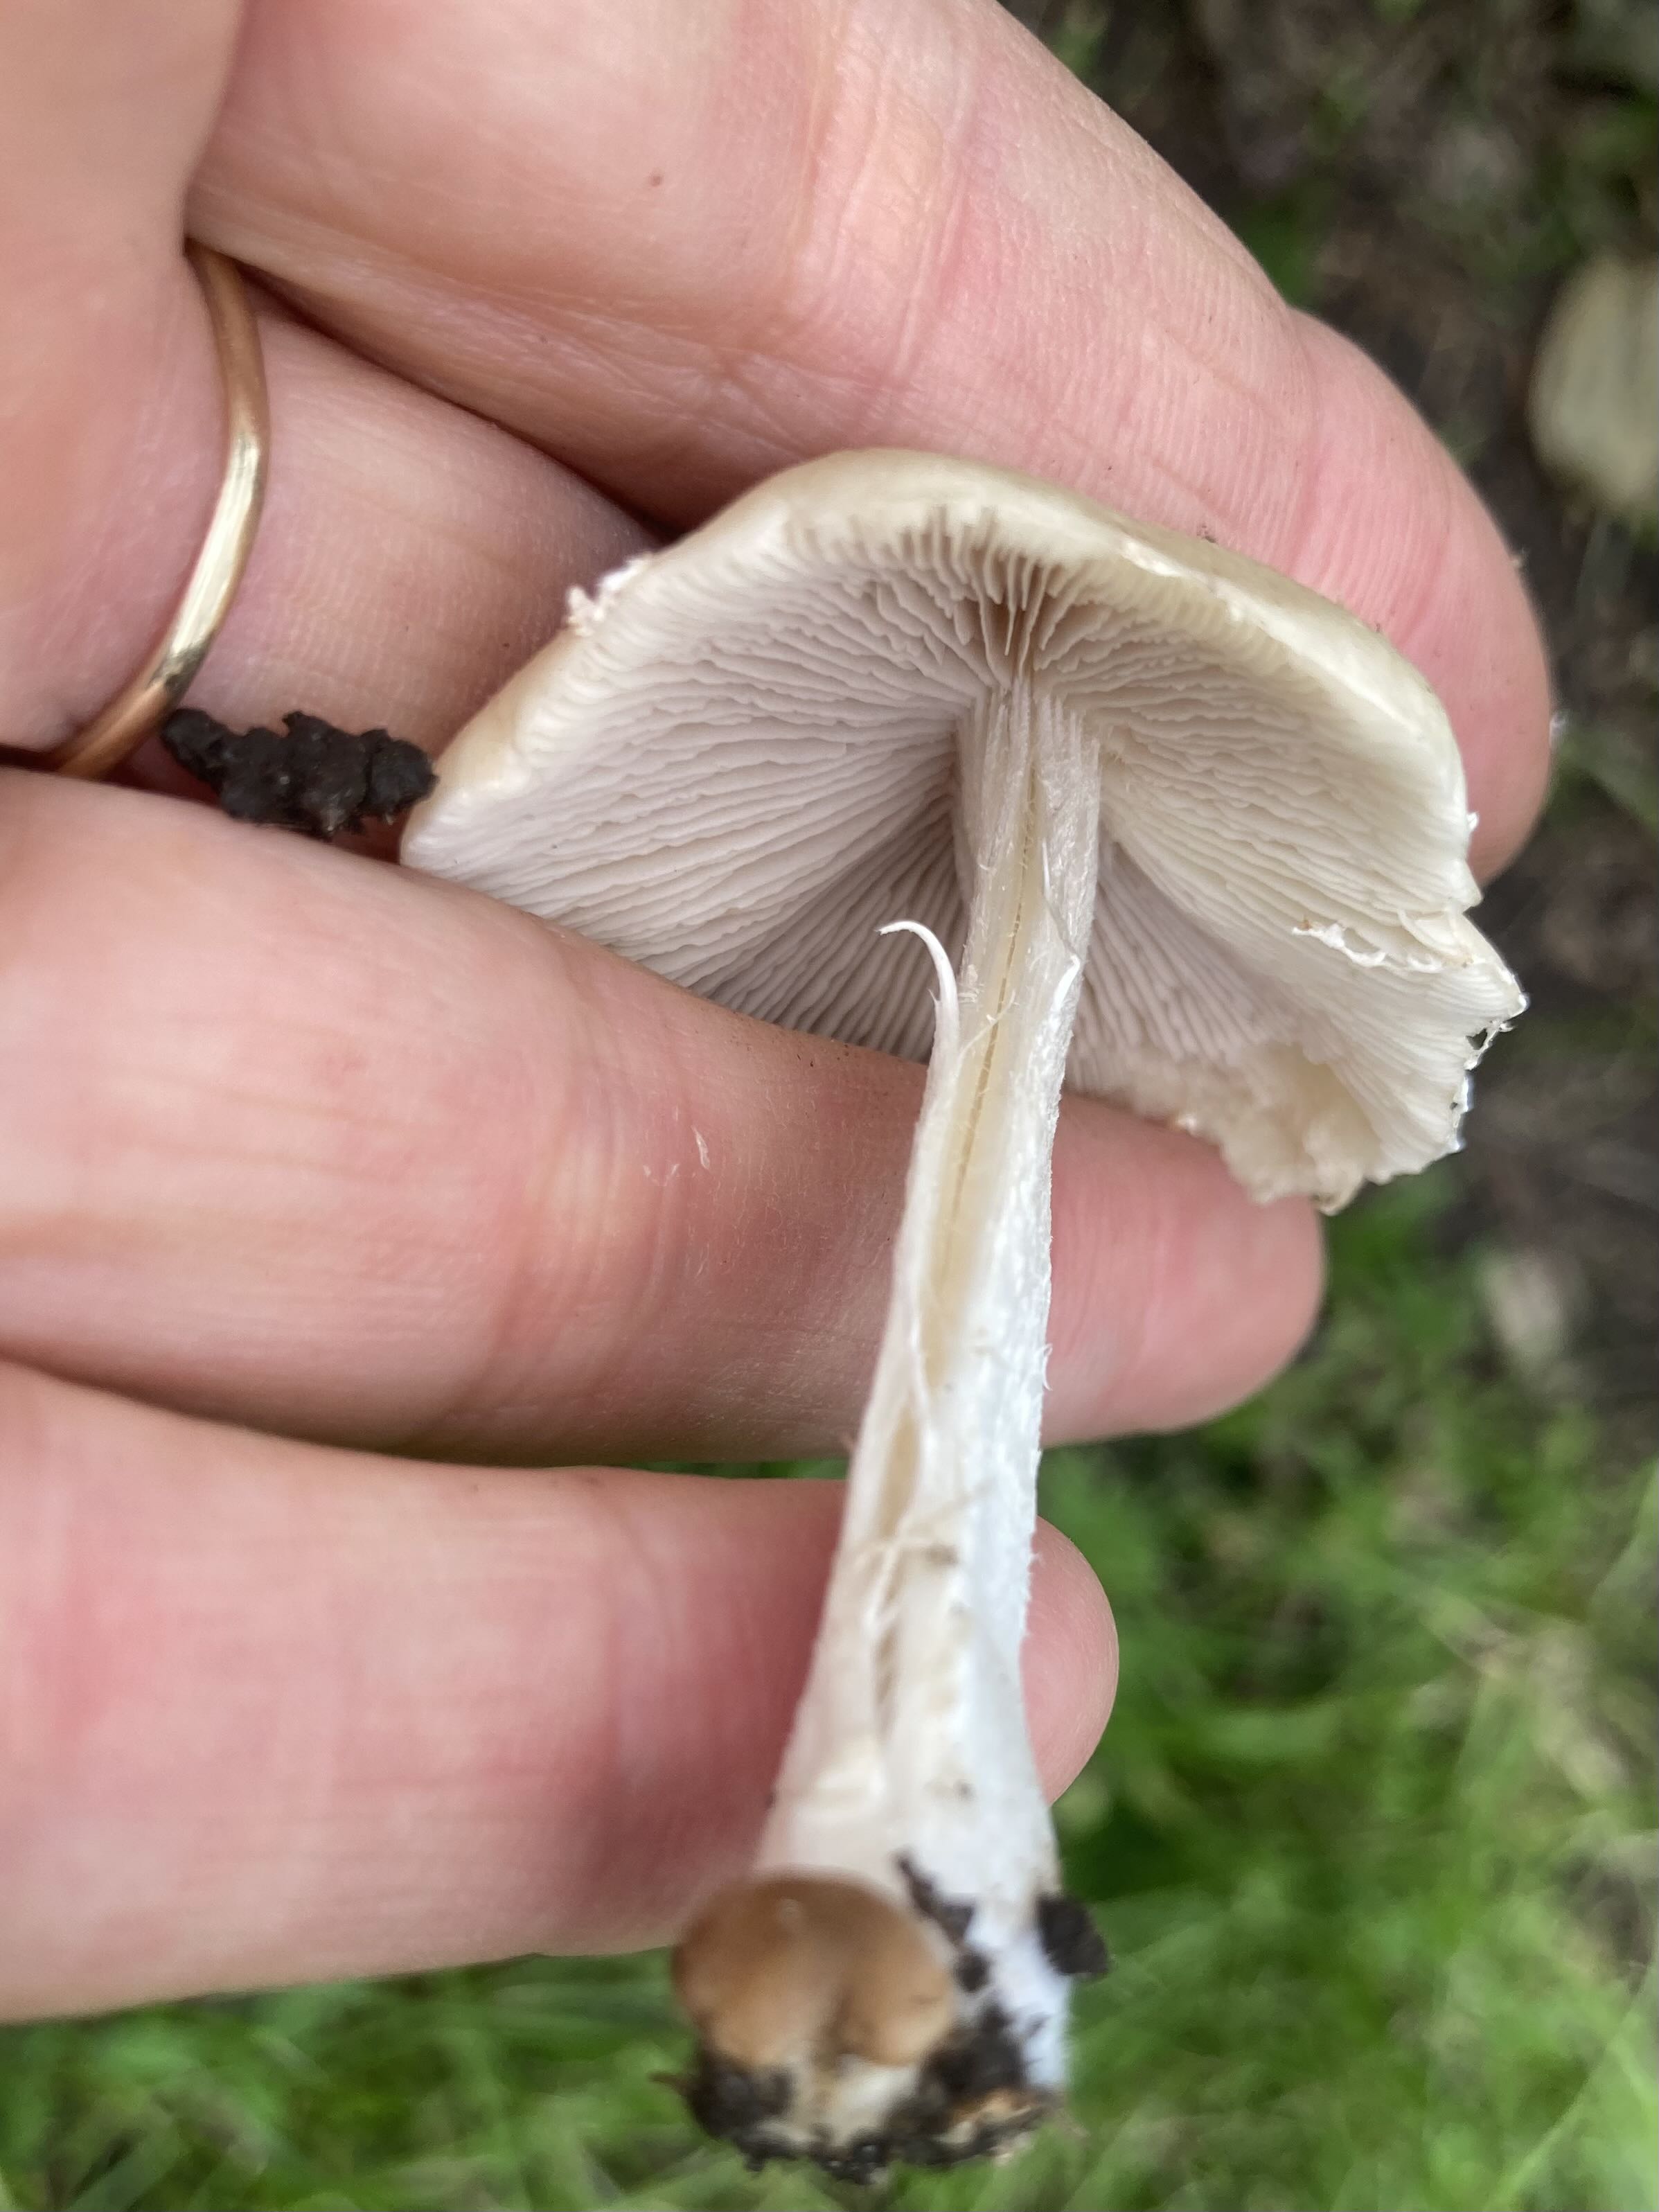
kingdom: Fungi
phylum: Basidiomycota
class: Agaricomycetes
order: Agaricales
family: Psathyrellaceae
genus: Candolleomyces
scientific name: Candolleomyces candolleanus
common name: Candolles mørkhat
